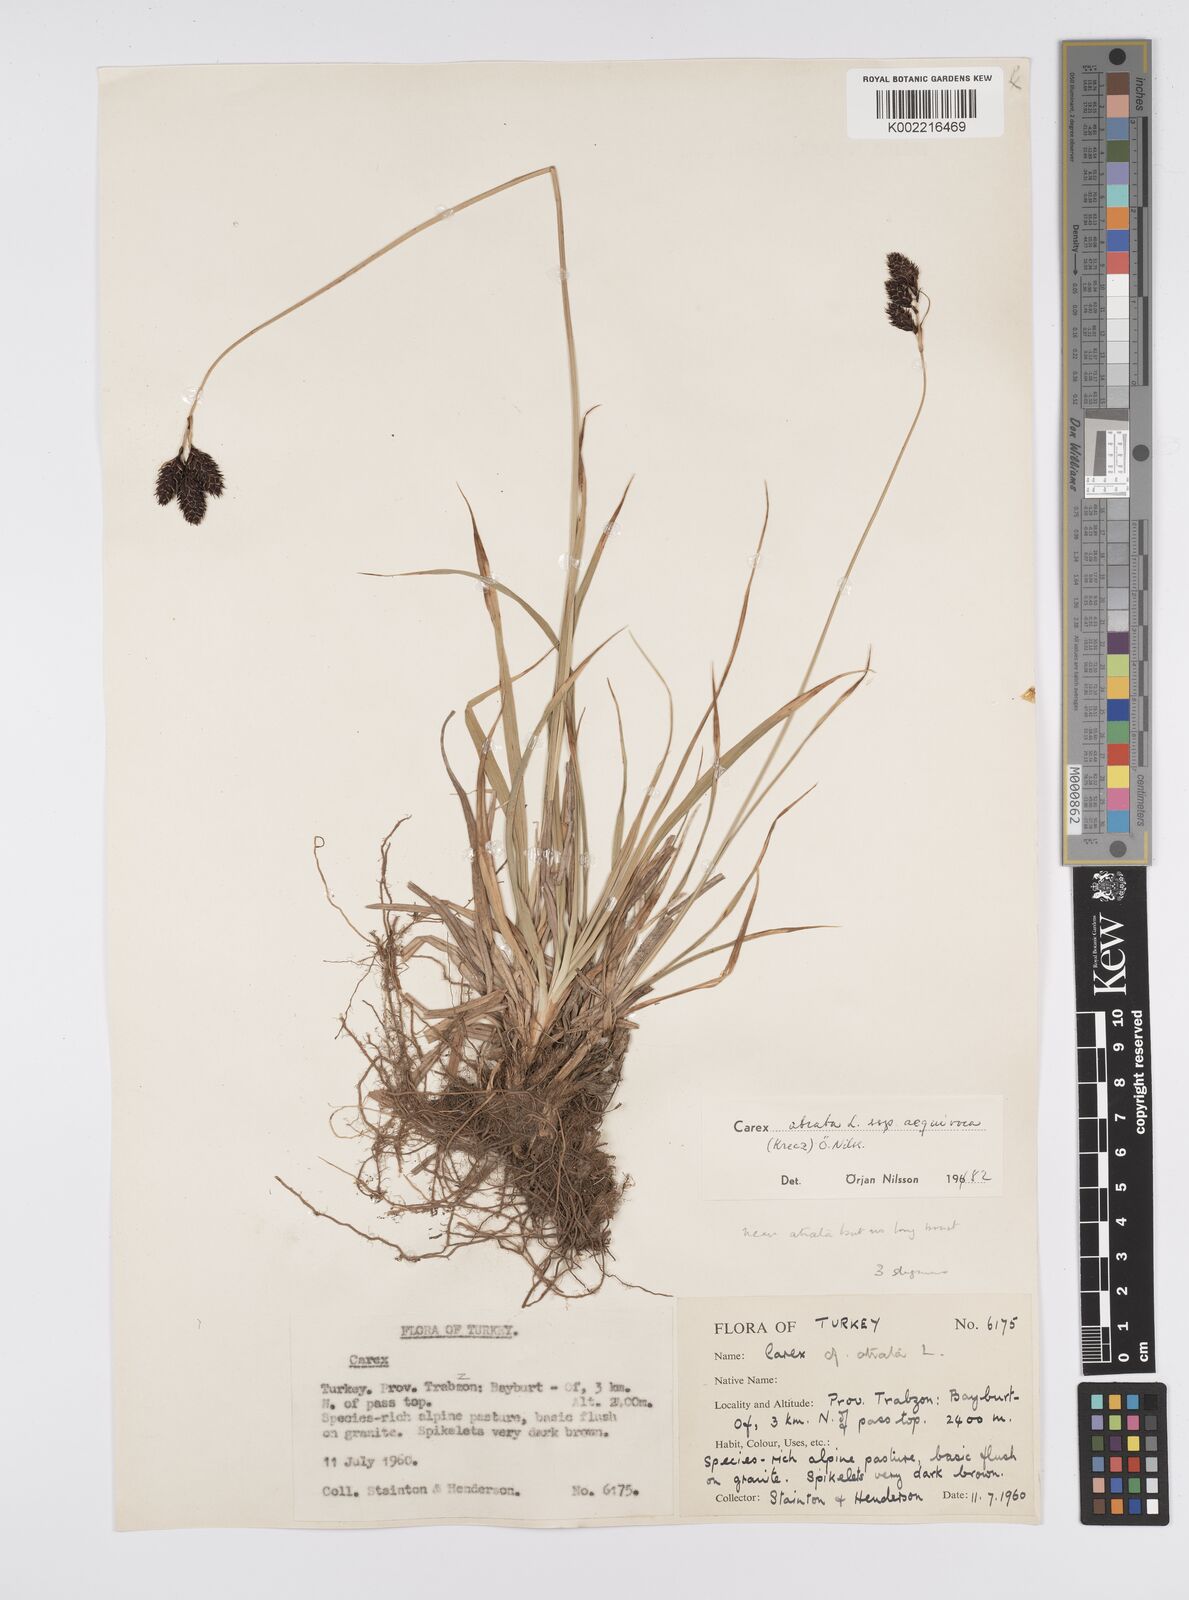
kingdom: Plantae
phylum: Tracheophyta
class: Liliopsida
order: Poales
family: Cyperaceae
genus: Carex
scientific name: Carex atrata
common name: Black alpine sedge
